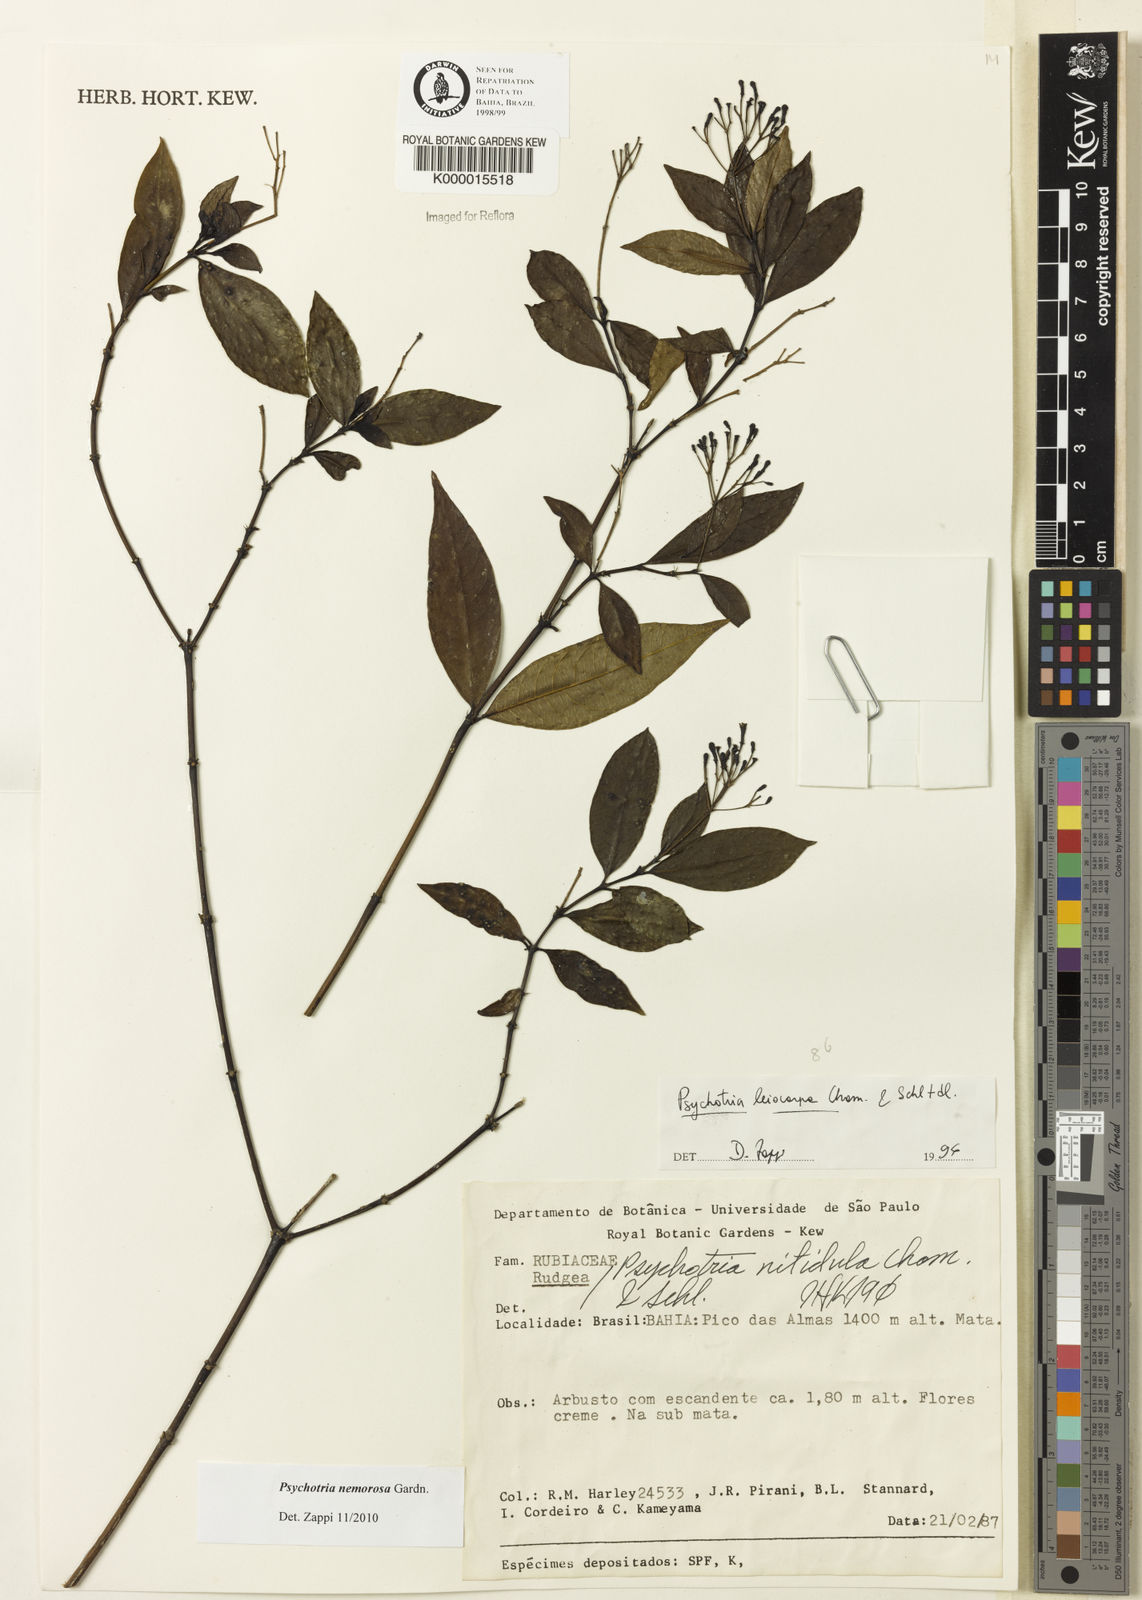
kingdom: Plantae
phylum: Tracheophyta
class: Magnoliopsida
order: Gentianales
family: Rubiaceae
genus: Psychotria
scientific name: Psychotria nemorosa
